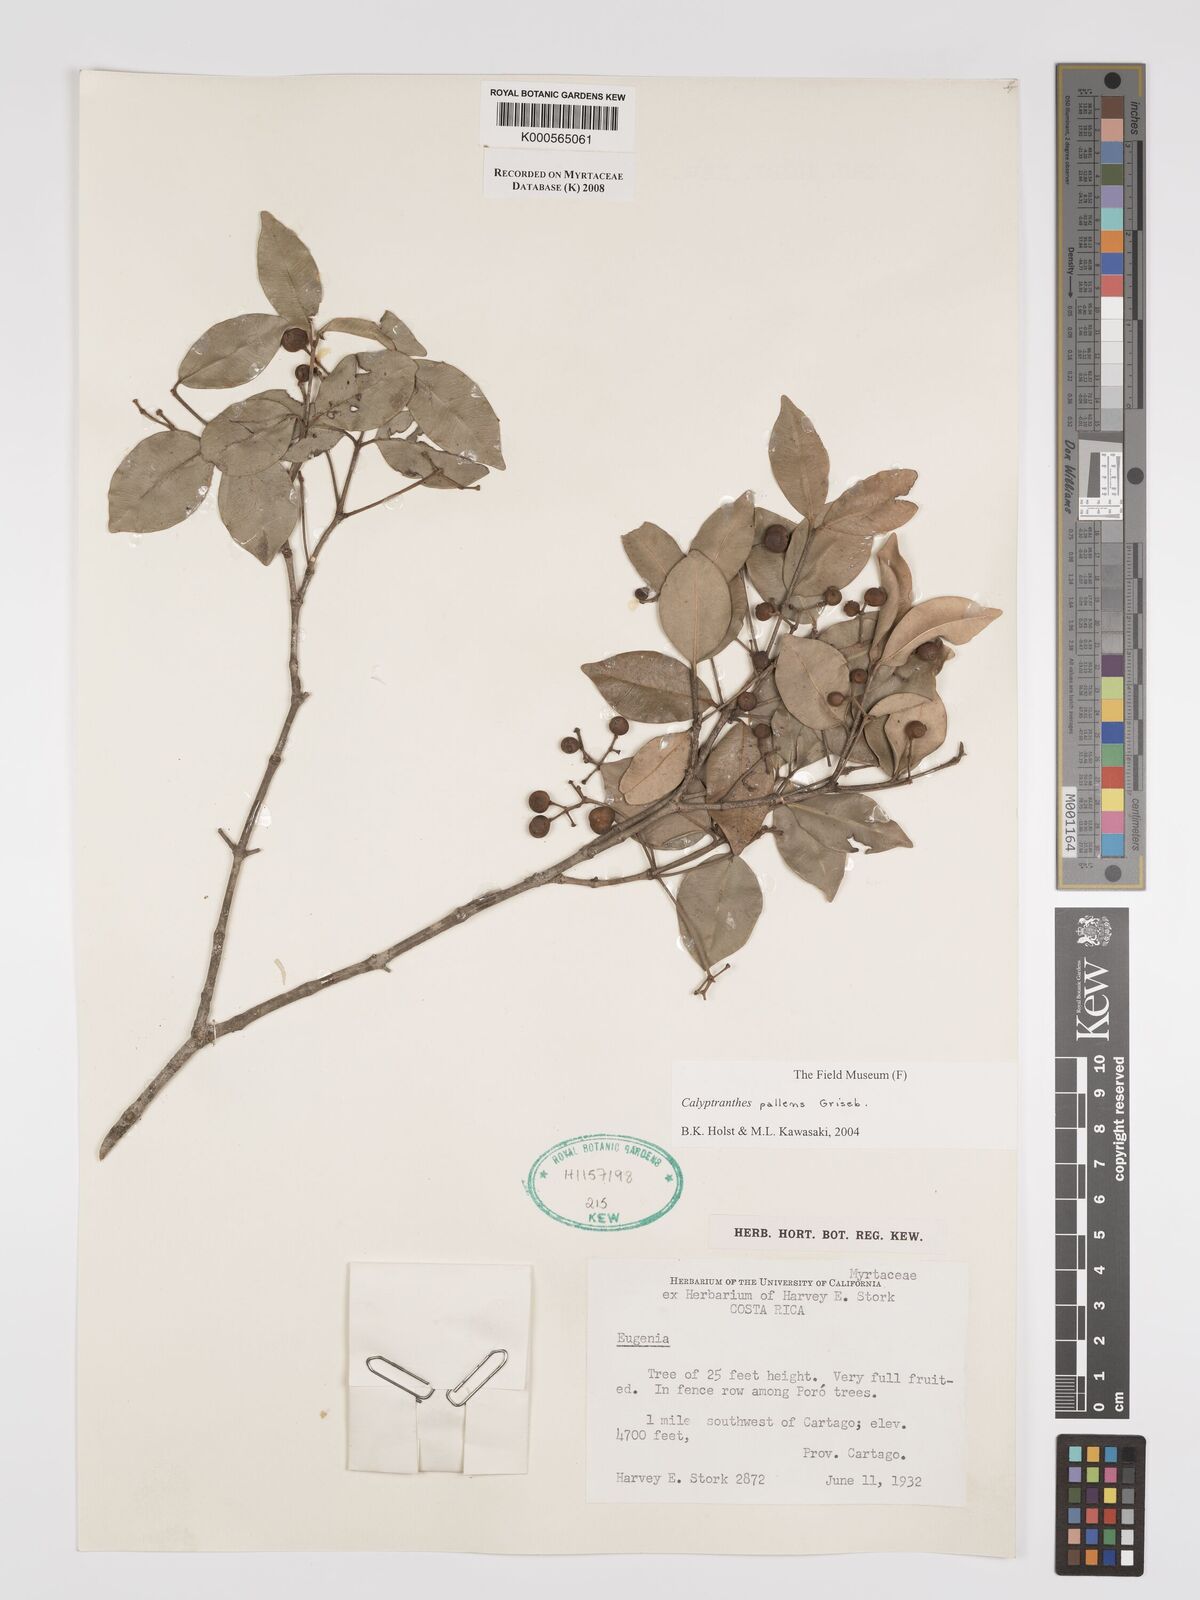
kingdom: Plantae
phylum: Tracheophyta
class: Magnoliopsida
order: Myrtales
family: Myrtaceae
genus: Myrcia
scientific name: Myrcia neopallens
